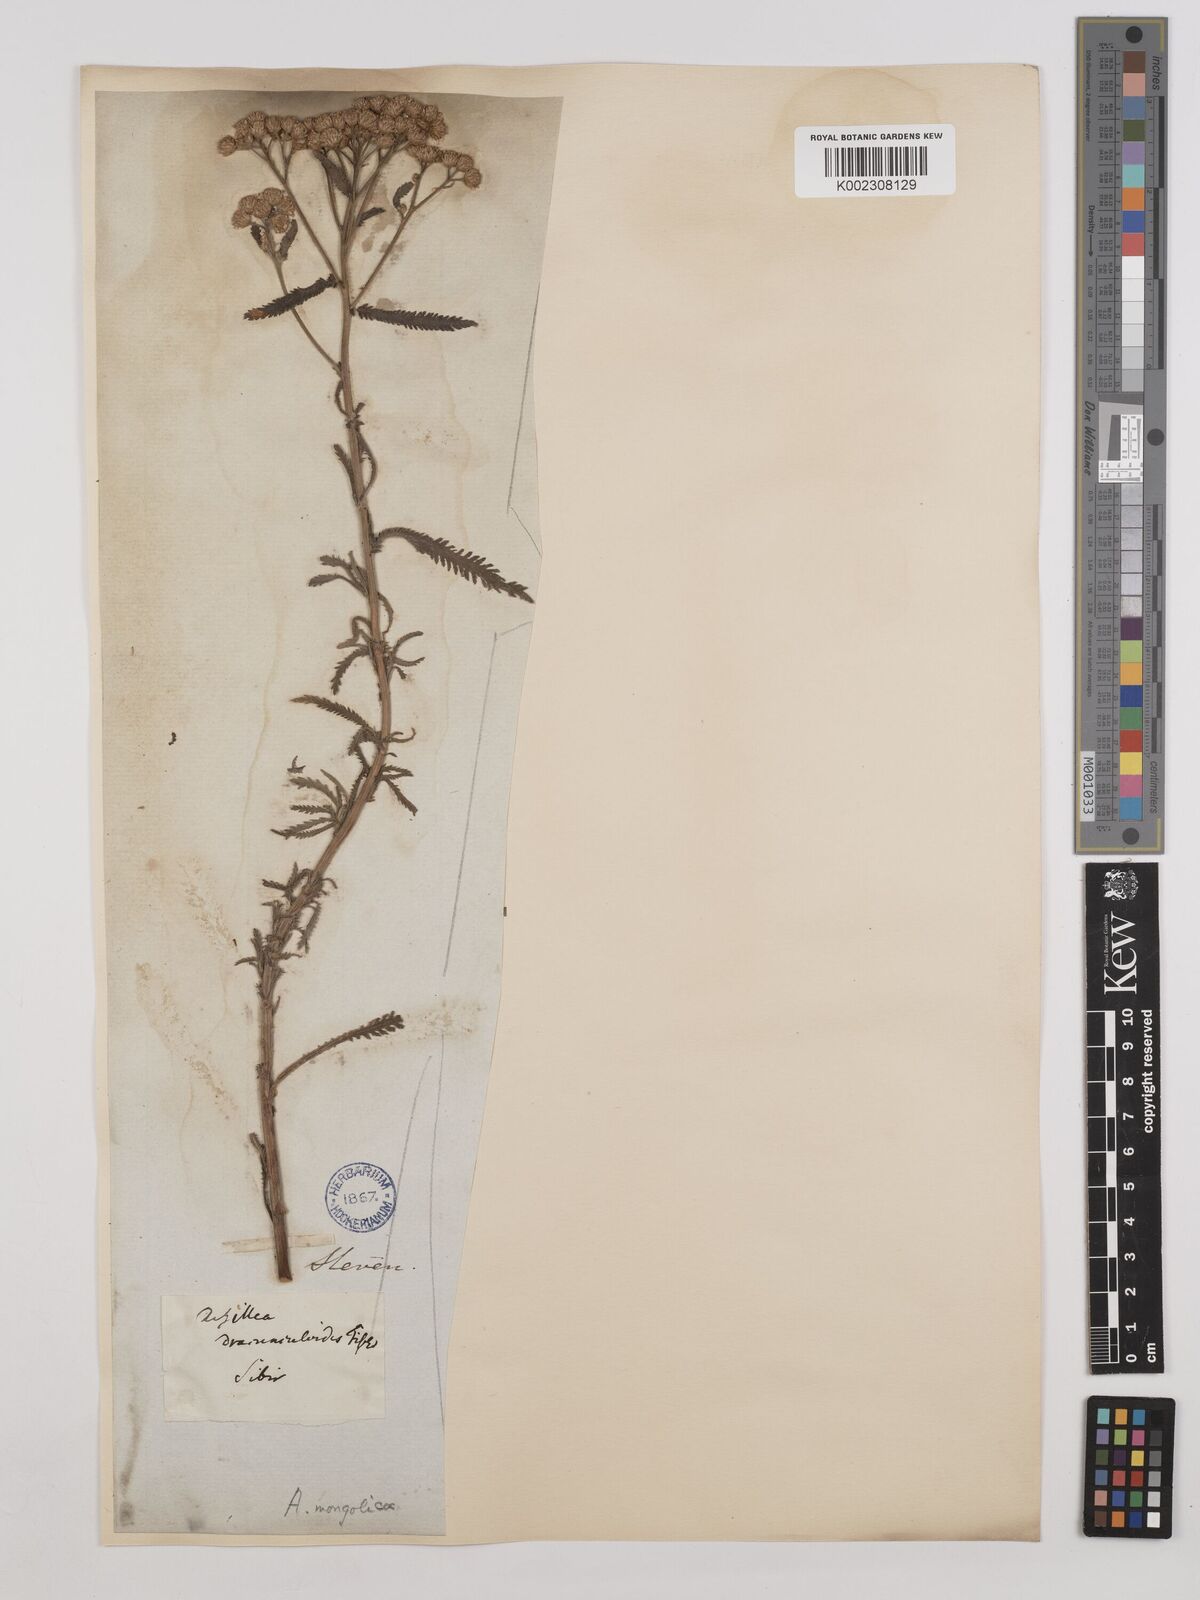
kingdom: Plantae
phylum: Tracheophyta
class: Magnoliopsida
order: Asterales
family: Asteraceae
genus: Achillea
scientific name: Achillea alpina
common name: Siberian yarrow
